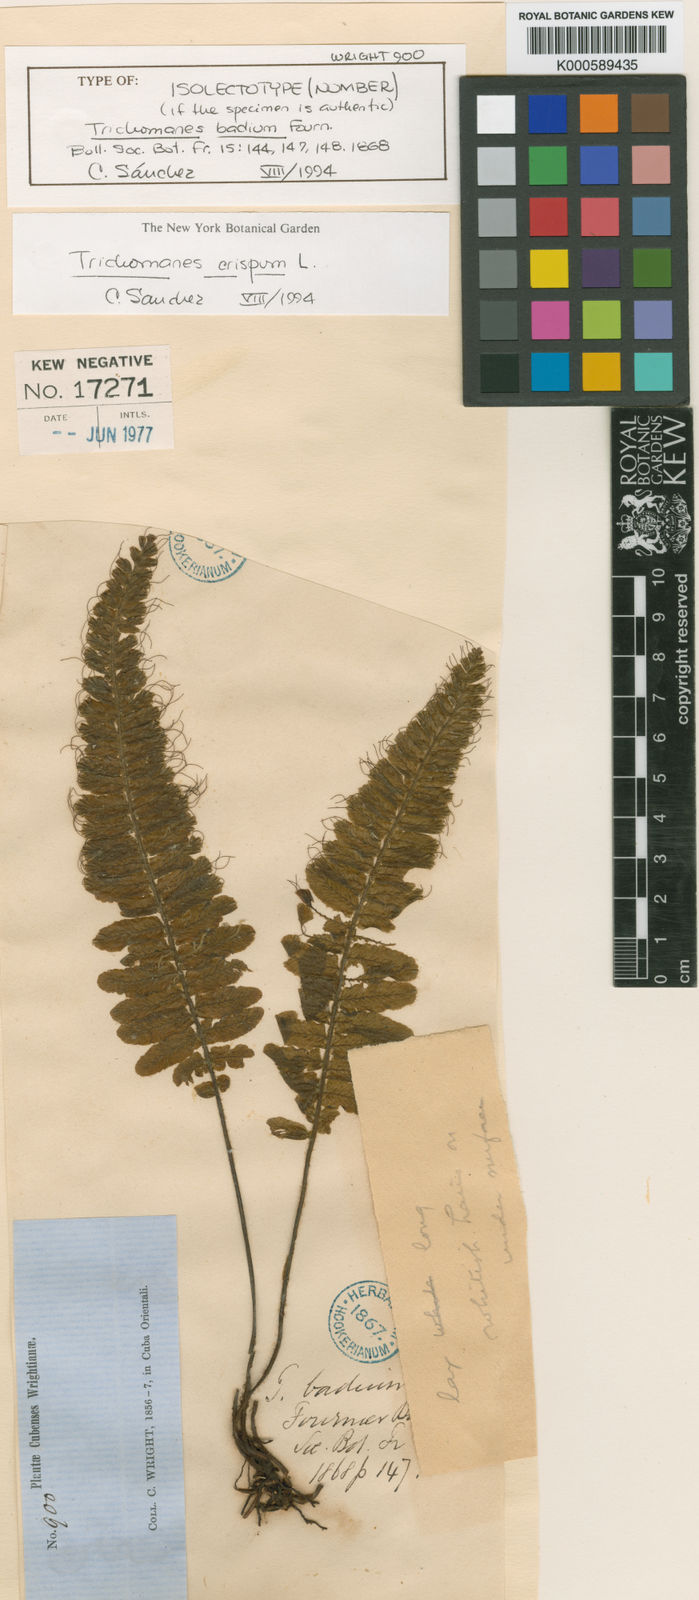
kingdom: Plantae
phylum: Tracheophyta
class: Polypodiopsida
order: Hymenophyllales
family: Hymenophyllaceae
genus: Trichomanes
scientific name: Trichomanes crispum
